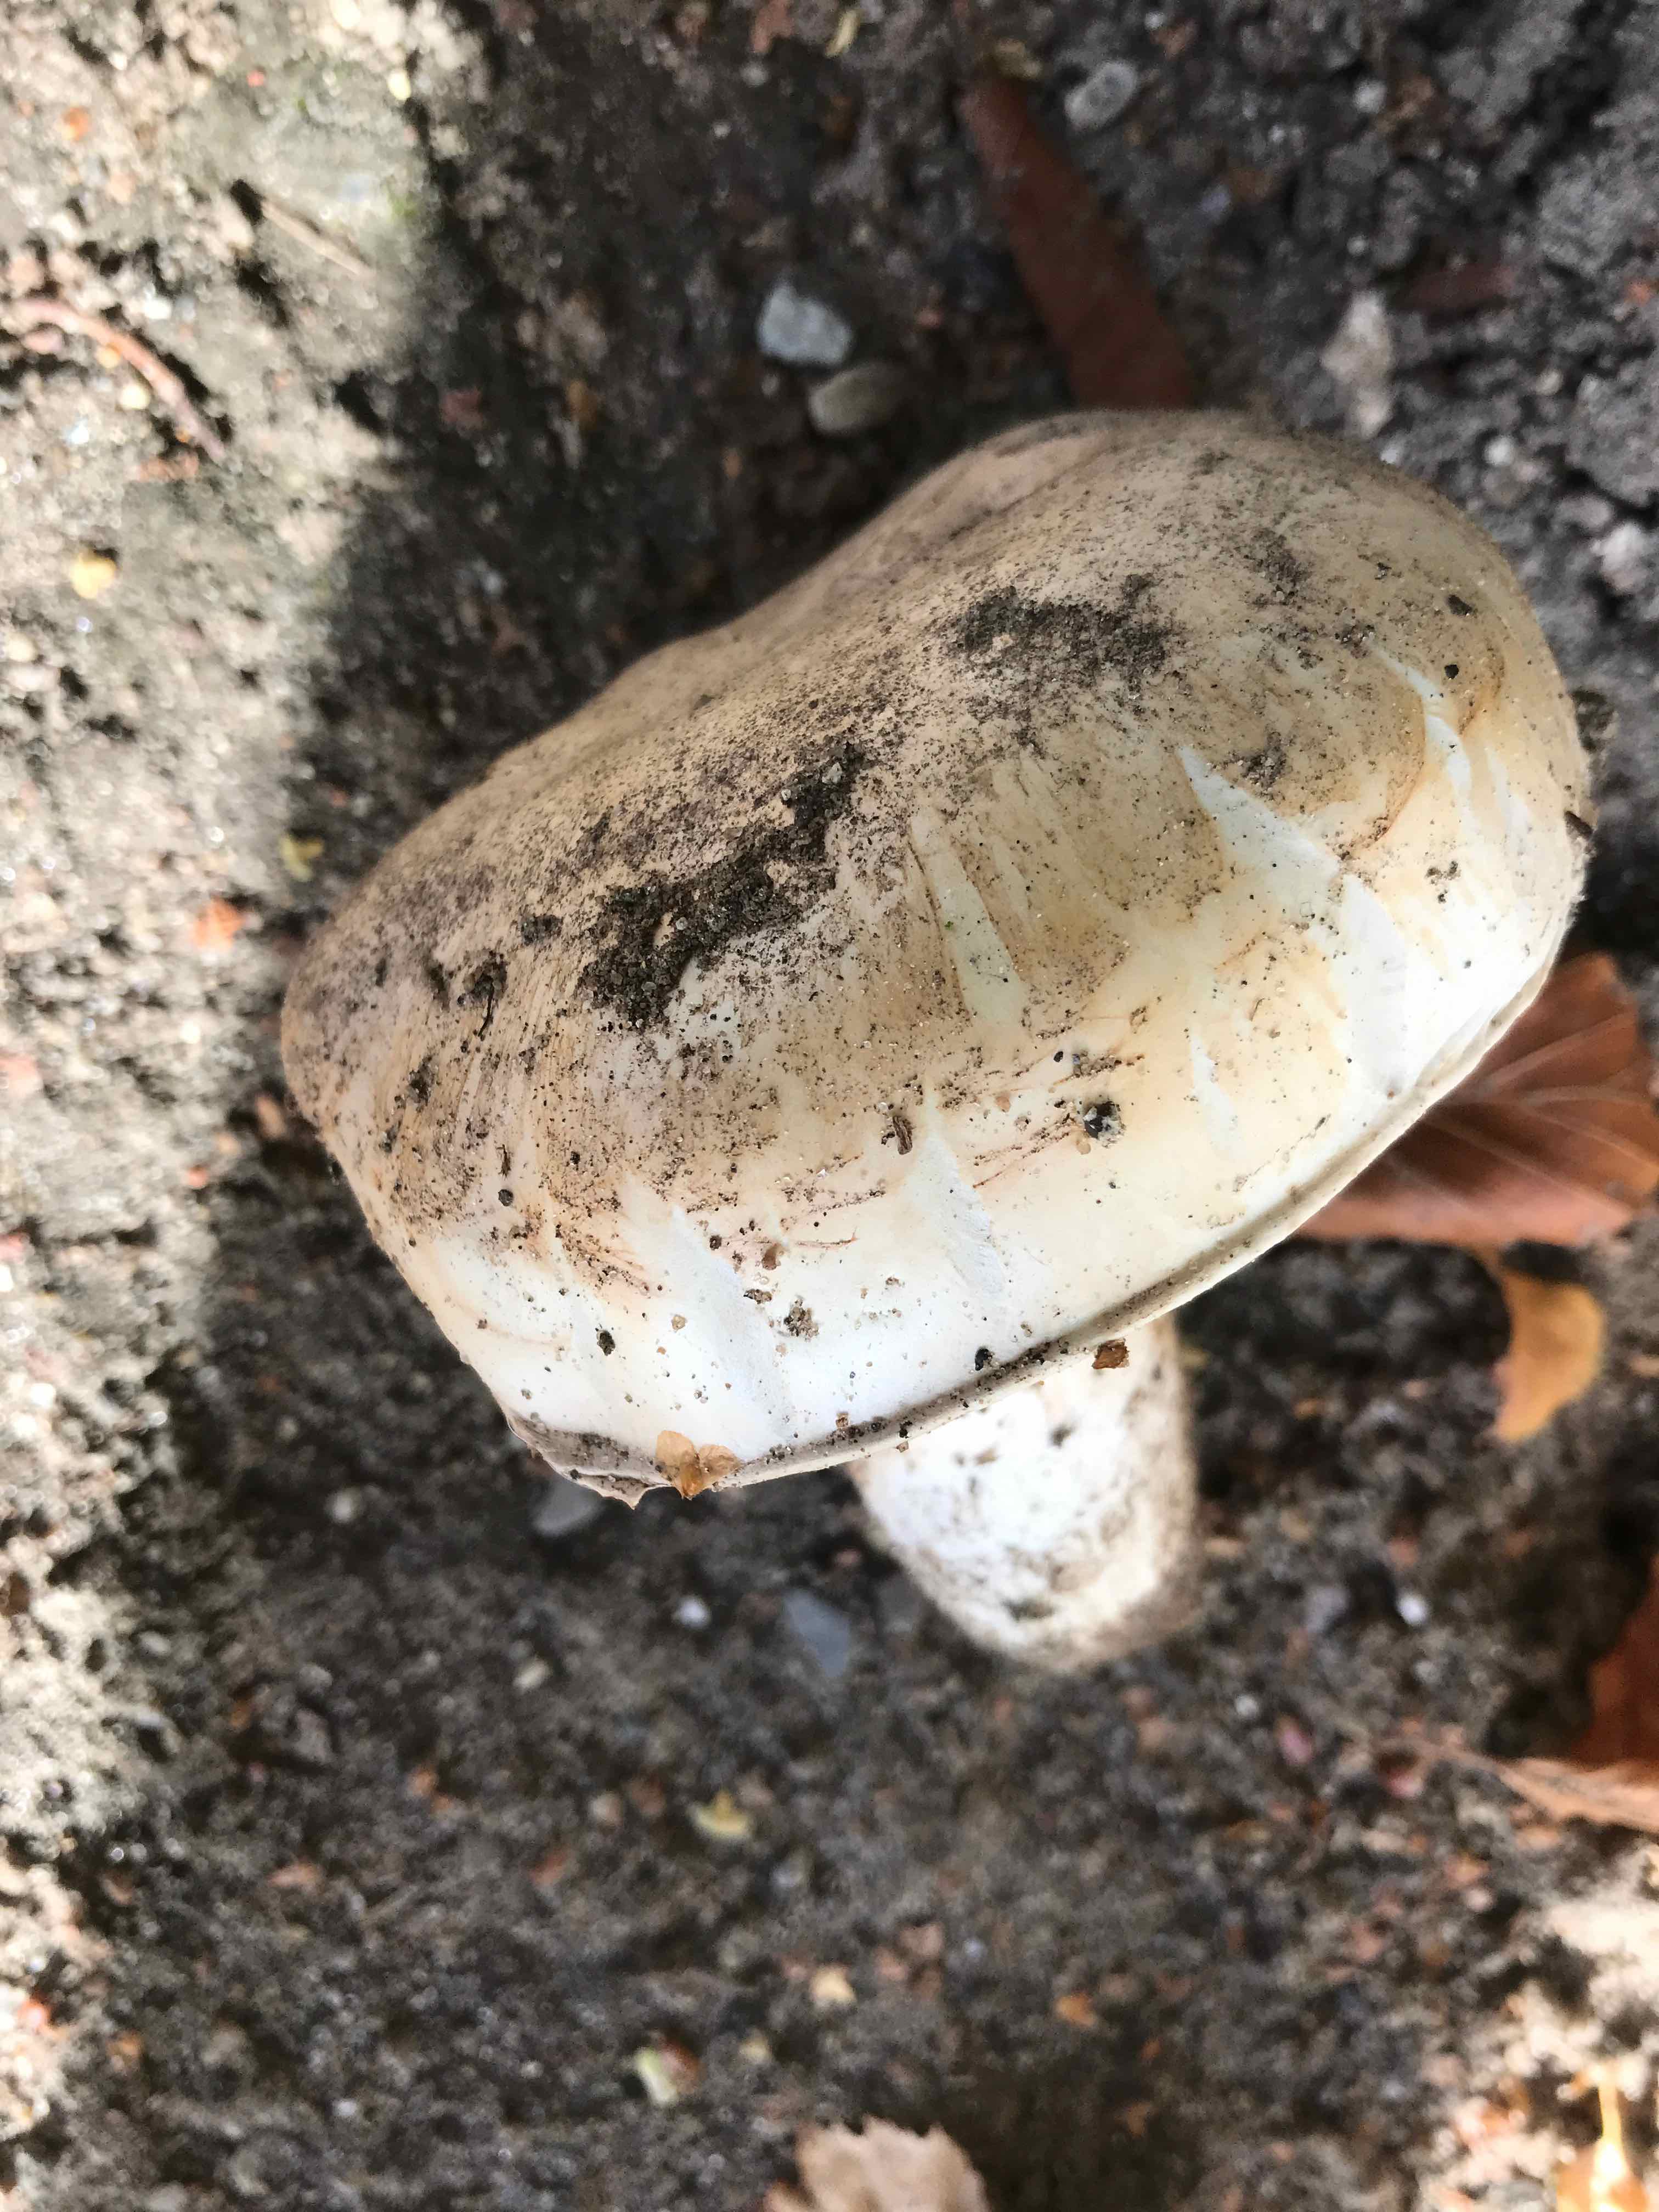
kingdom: Fungi
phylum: Basidiomycota
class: Agaricomycetes
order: Agaricales
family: Agaricaceae
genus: Agaricus
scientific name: Agaricus bitorquis
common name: vej-champignon
